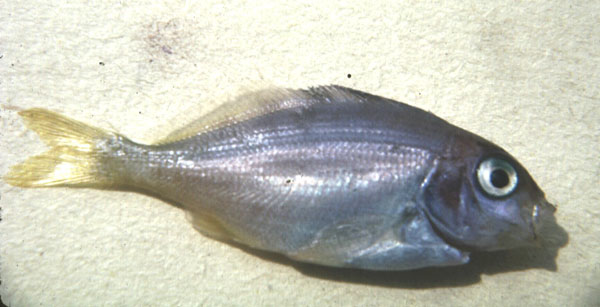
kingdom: Animalia
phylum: Chordata
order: Perciformes
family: Cheilodactylidae
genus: Chirodactylus
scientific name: Chirodactylus brachydactylus
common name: Butterfish
